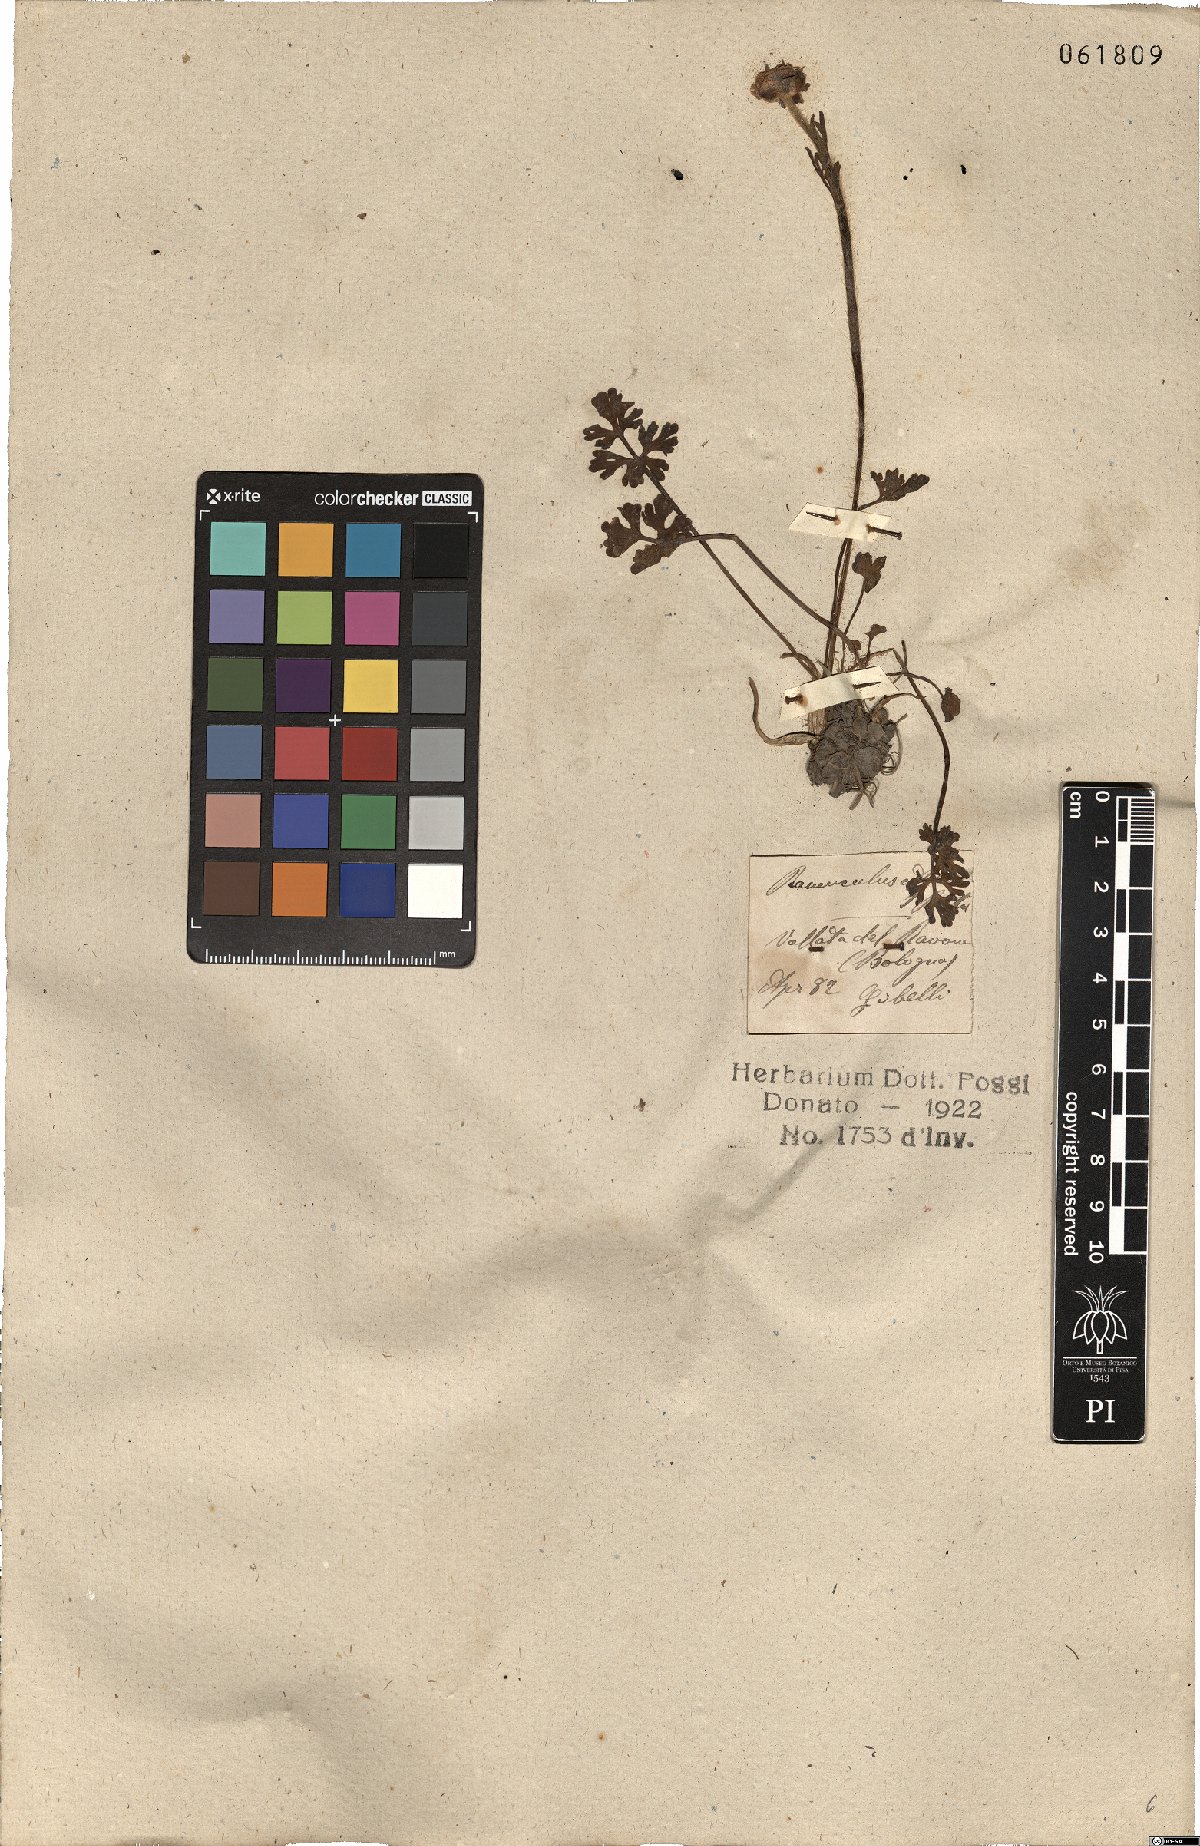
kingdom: Plantae
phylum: Tracheophyta
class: Magnoliopsida
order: Ranunculales
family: Ranunculaceae
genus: Ranunculus
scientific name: Ranunculus gracilis
